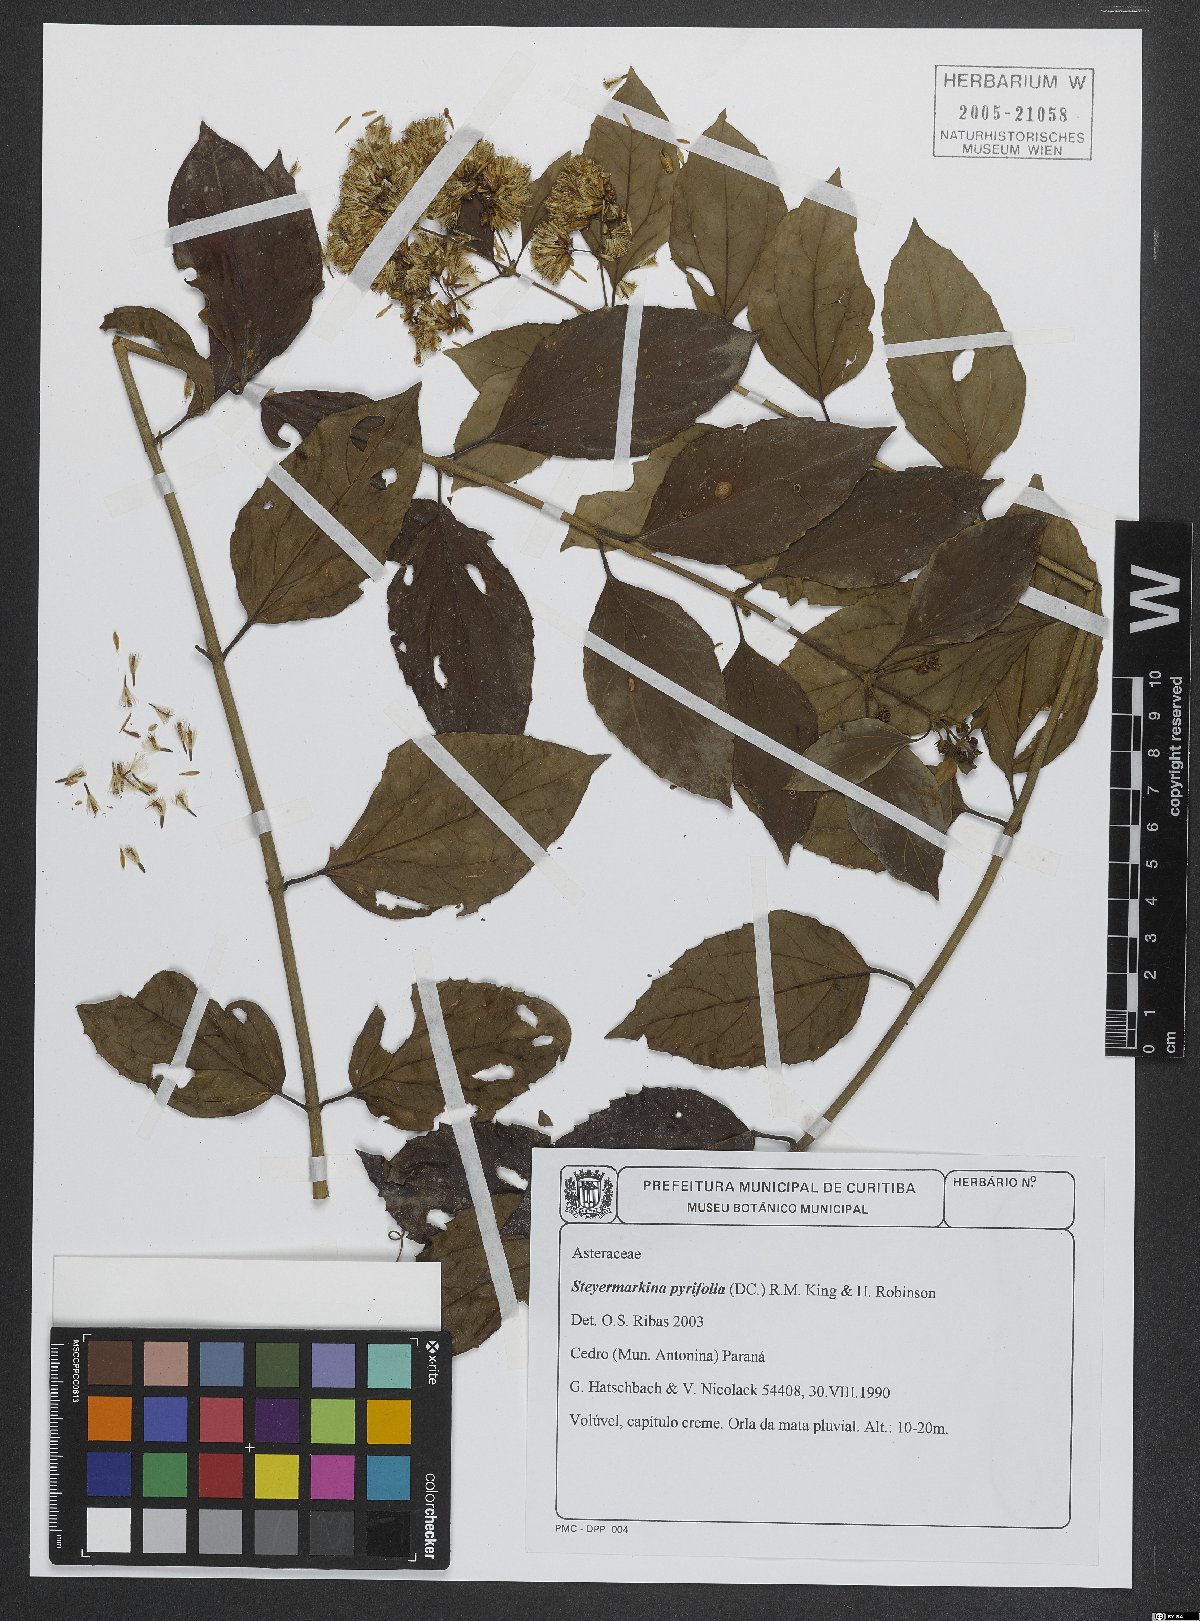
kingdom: Plantae
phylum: Tracheophyta
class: Magnoliopsida
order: Asterales
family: Asteraceae
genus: Steyermarkina
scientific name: Steyermarkina pyrifolia
